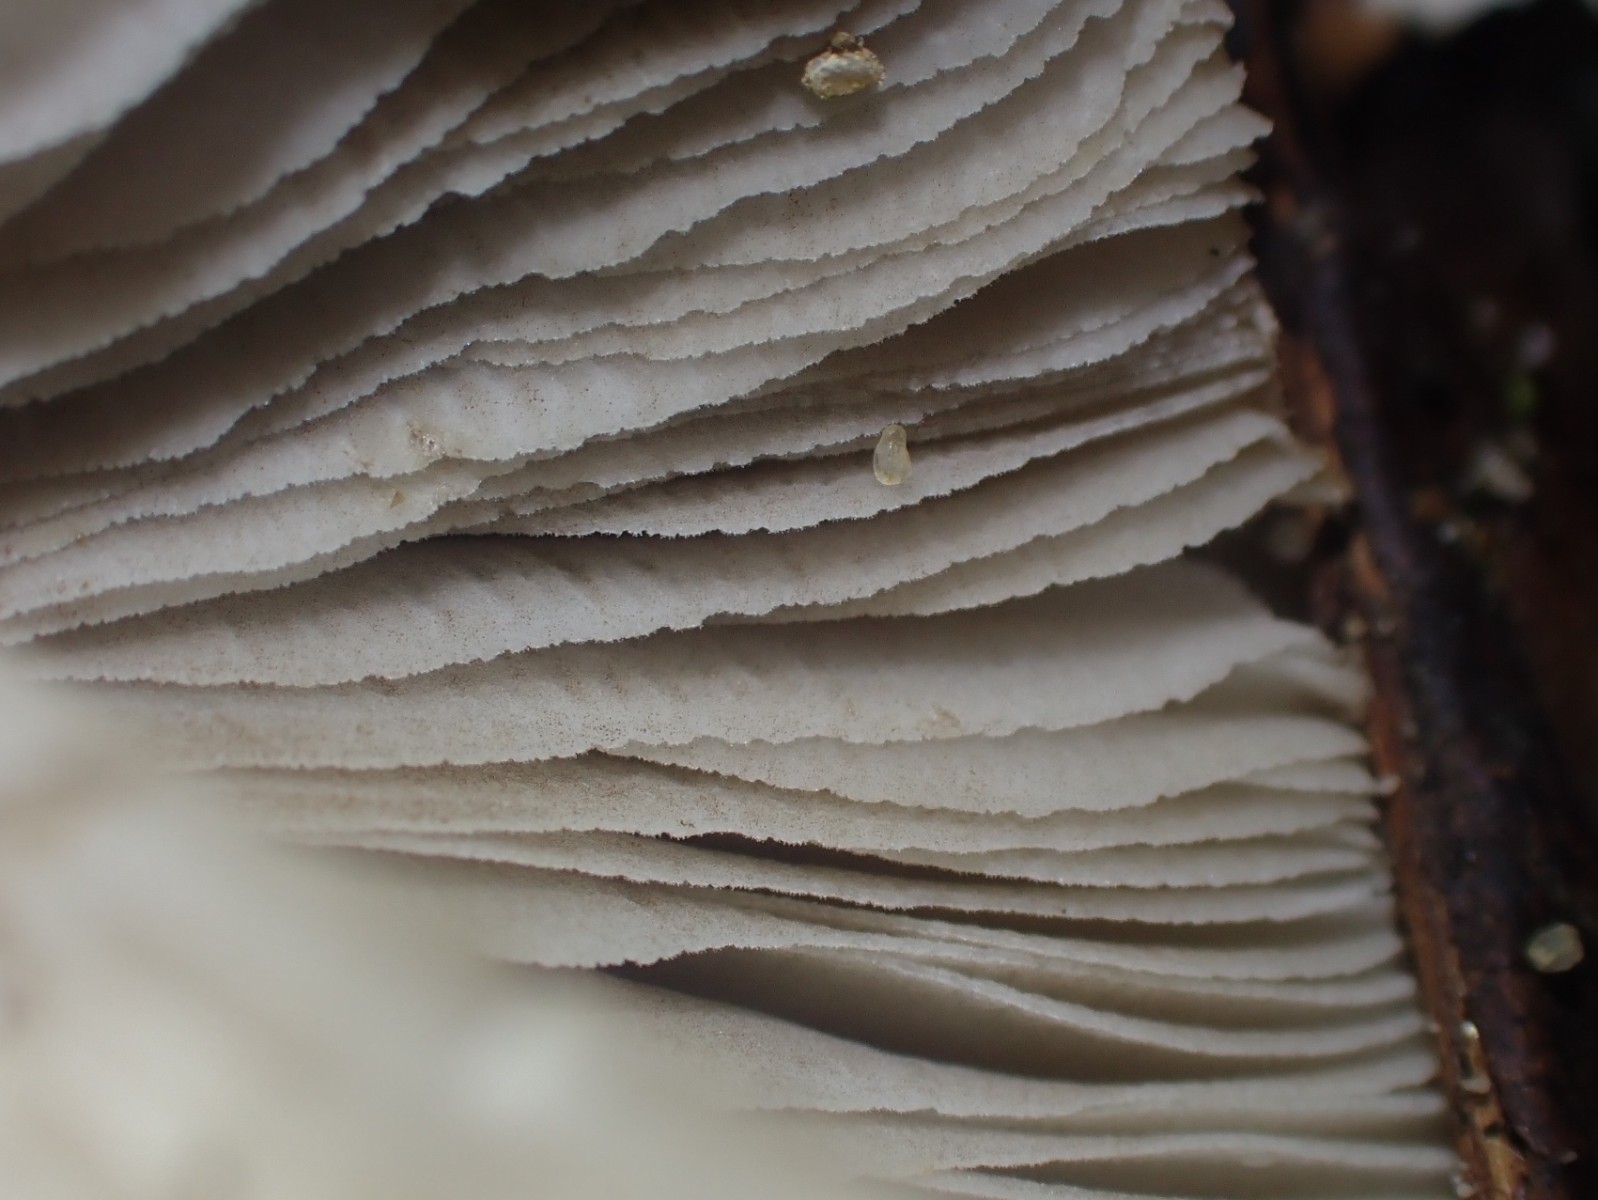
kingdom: Fungi
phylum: Basidiomycota
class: Agaricomycetes
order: Agaricales
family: Inocybaceae
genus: Inocybe
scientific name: Inocybe
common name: trævlhat
